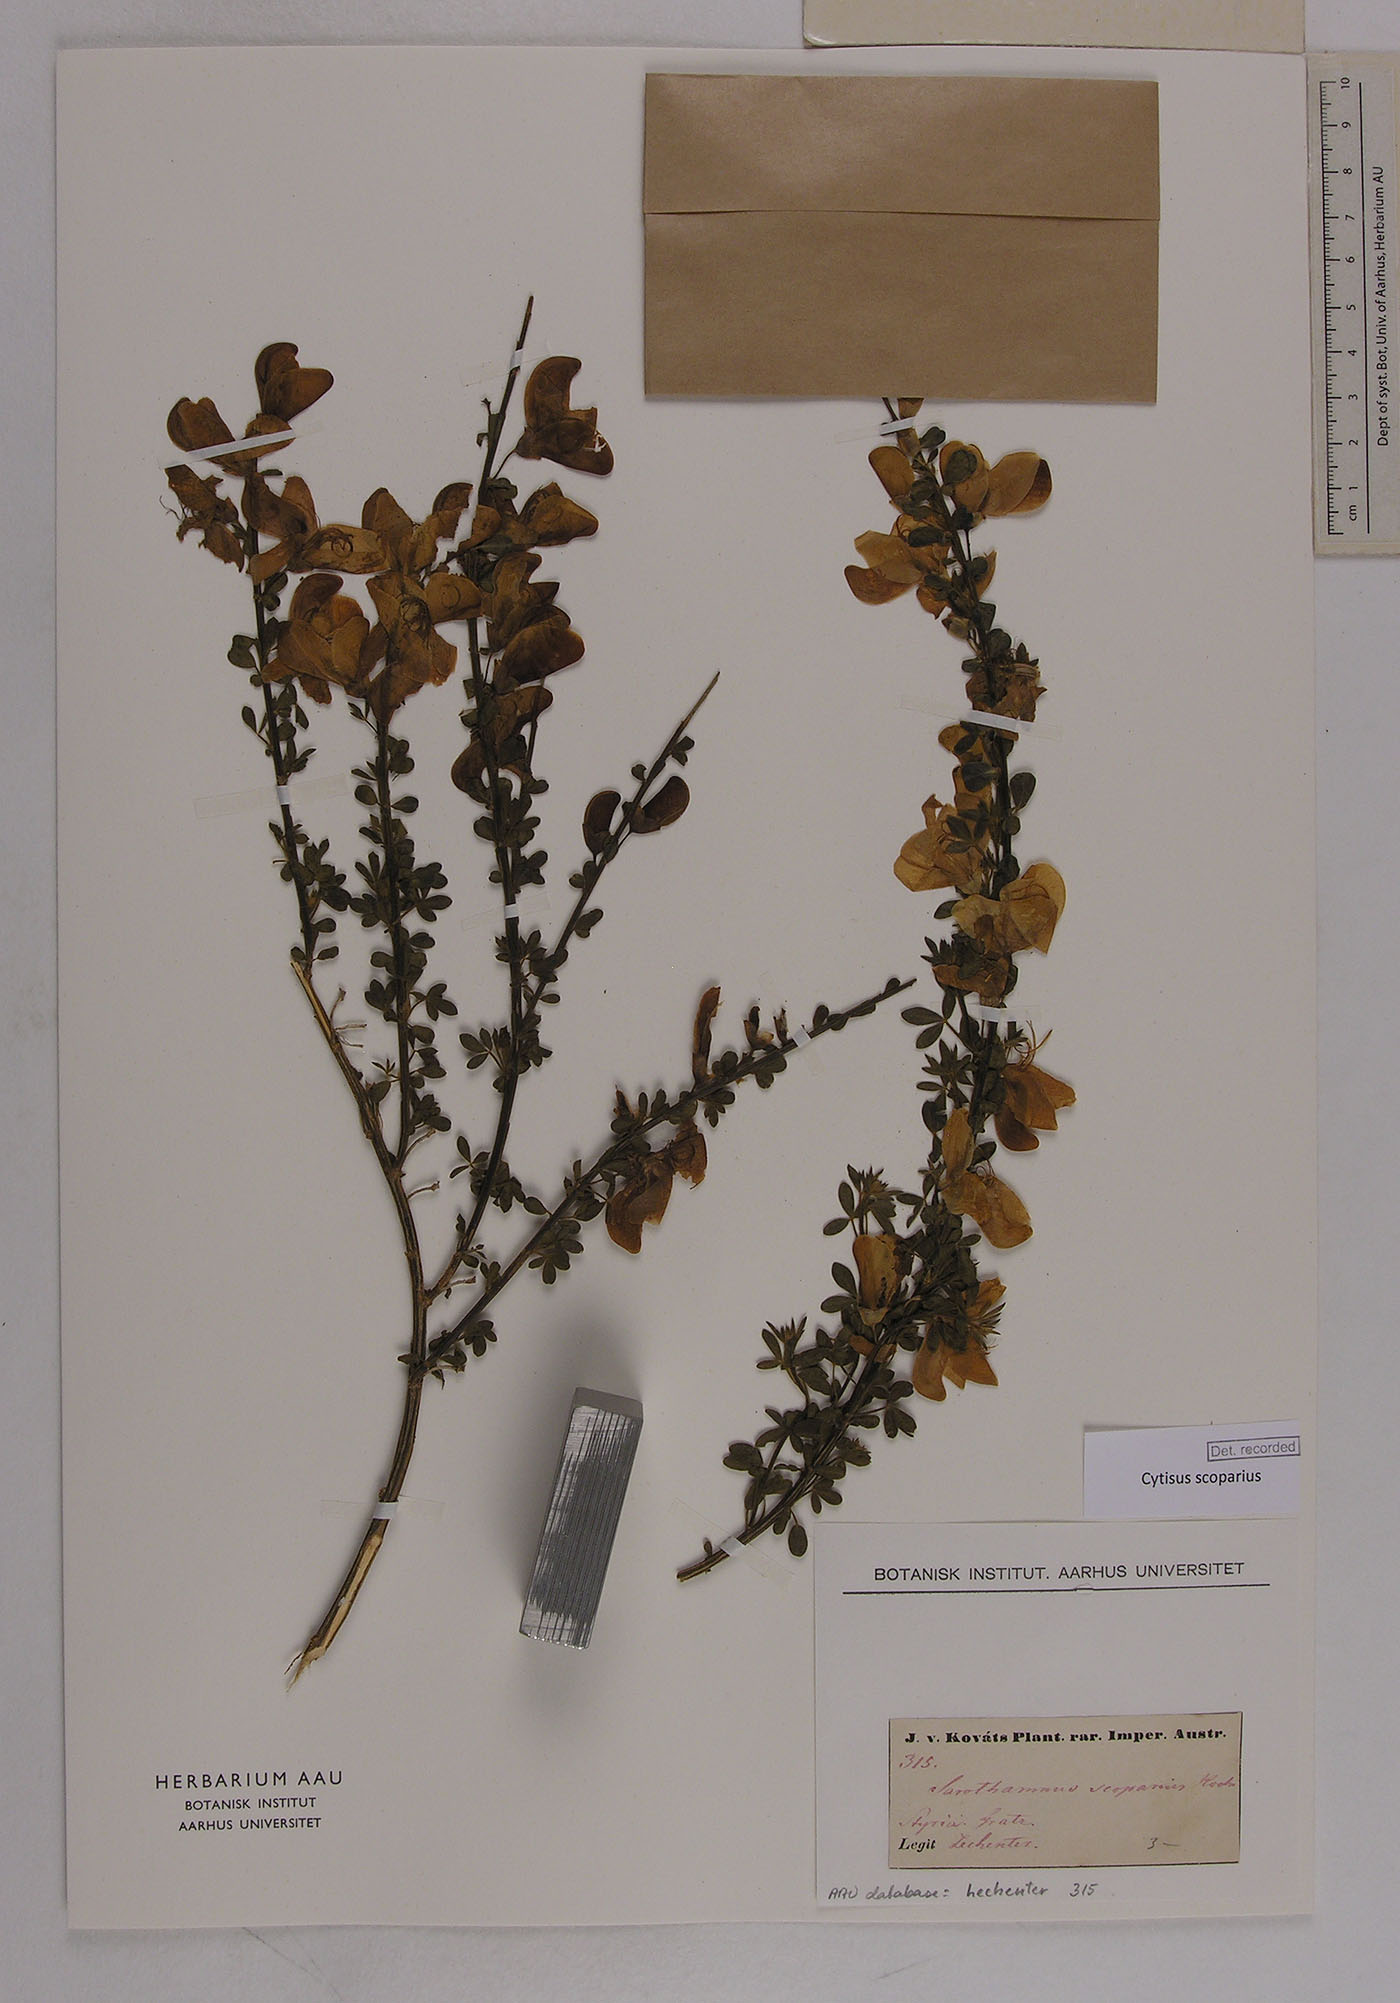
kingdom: Plantae
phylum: Tracheophyta
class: Magnoliopsida
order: Fabales
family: Fabaceae
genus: Cytisus
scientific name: Cytisus scoparius
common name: Scotch broom
